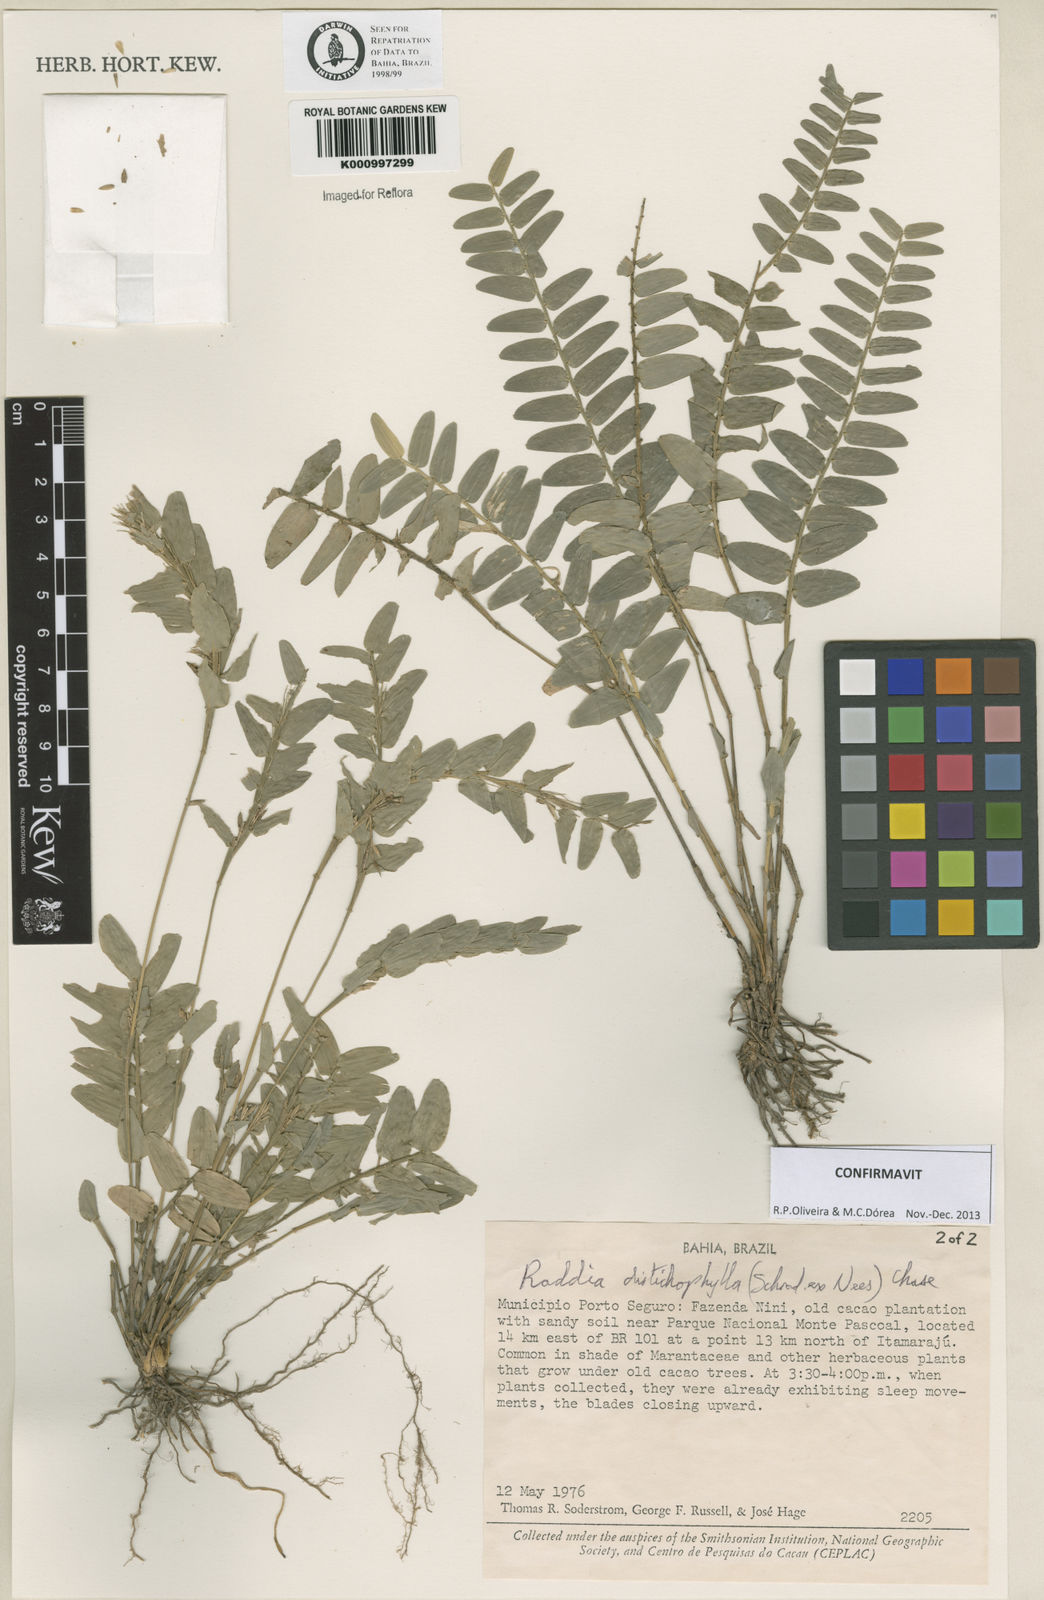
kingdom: Plantae
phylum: Tracheophyta
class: Liliopsida
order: Poales
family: Poaceae
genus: Raddia
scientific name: Raddia distichophylla
